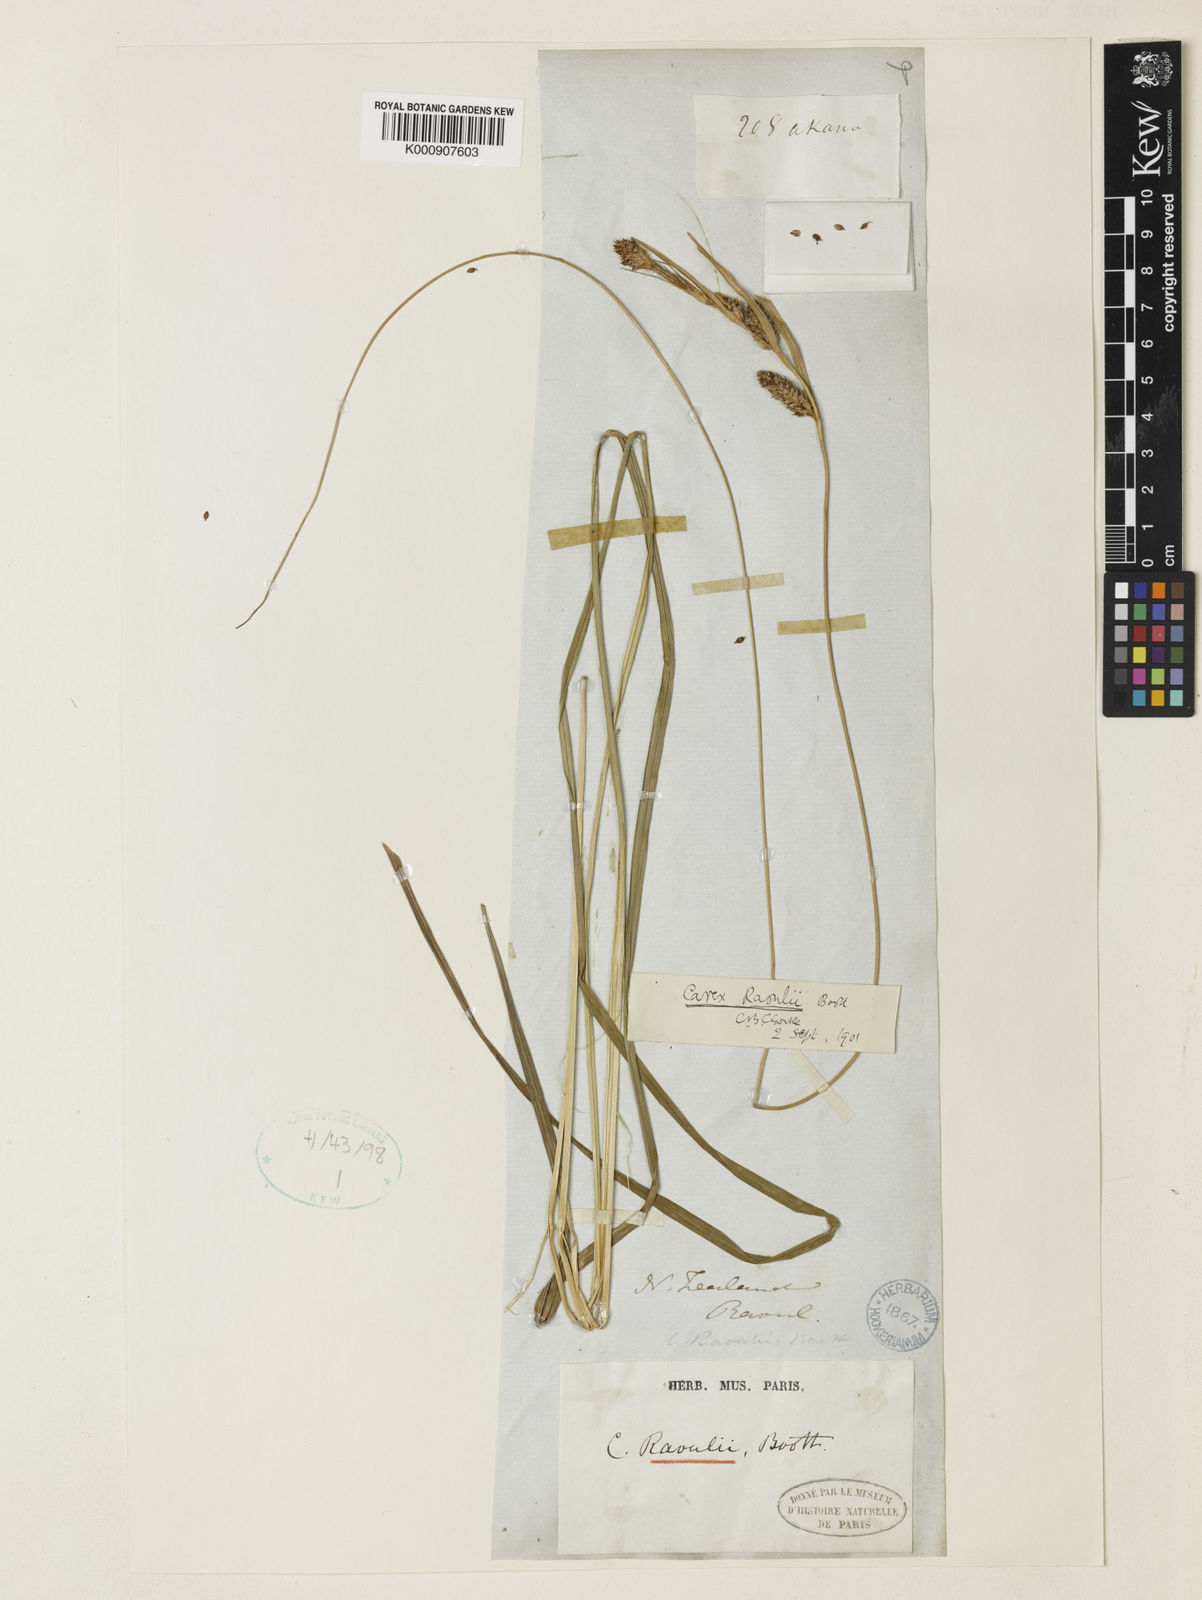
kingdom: Plantae
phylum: Tracheophyta
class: Liliopsida
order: Poales
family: Cyperaceae
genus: Carex
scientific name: Carex raoulii
